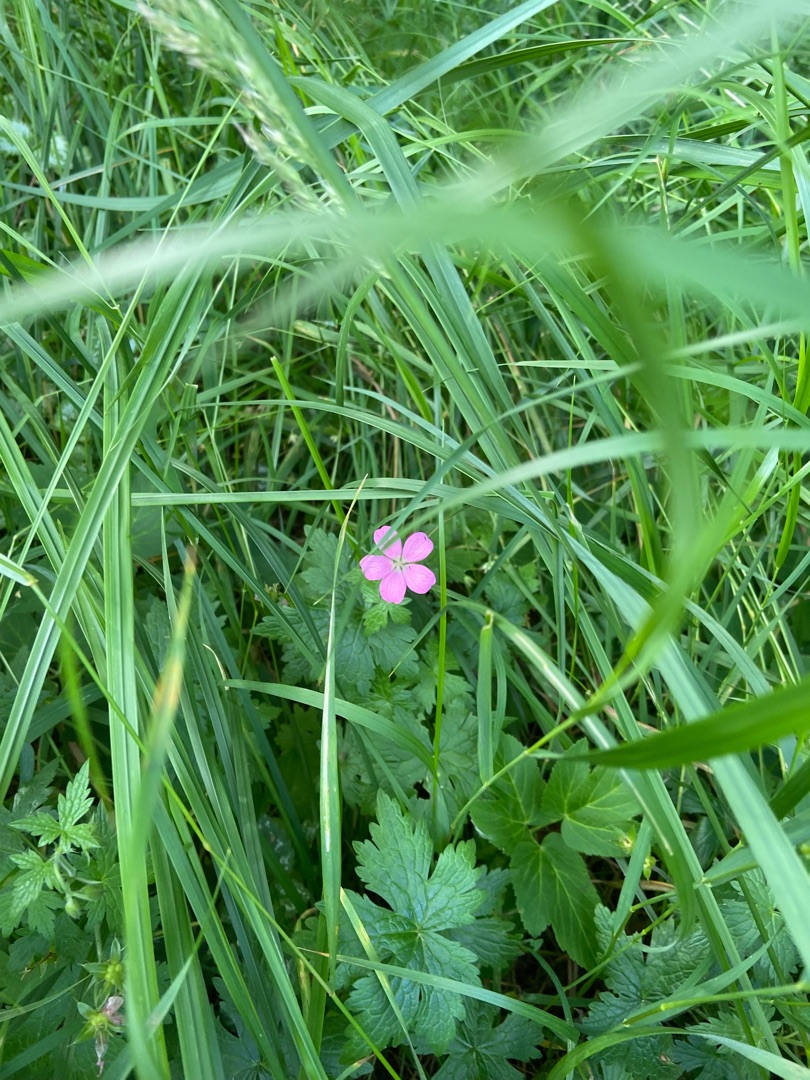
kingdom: Plantae
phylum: Tracheophyta
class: Magnoliopsida
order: Geraniales
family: Geraniaceae
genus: Geranium
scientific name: Geranium palustre
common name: Kær-storkenæb
